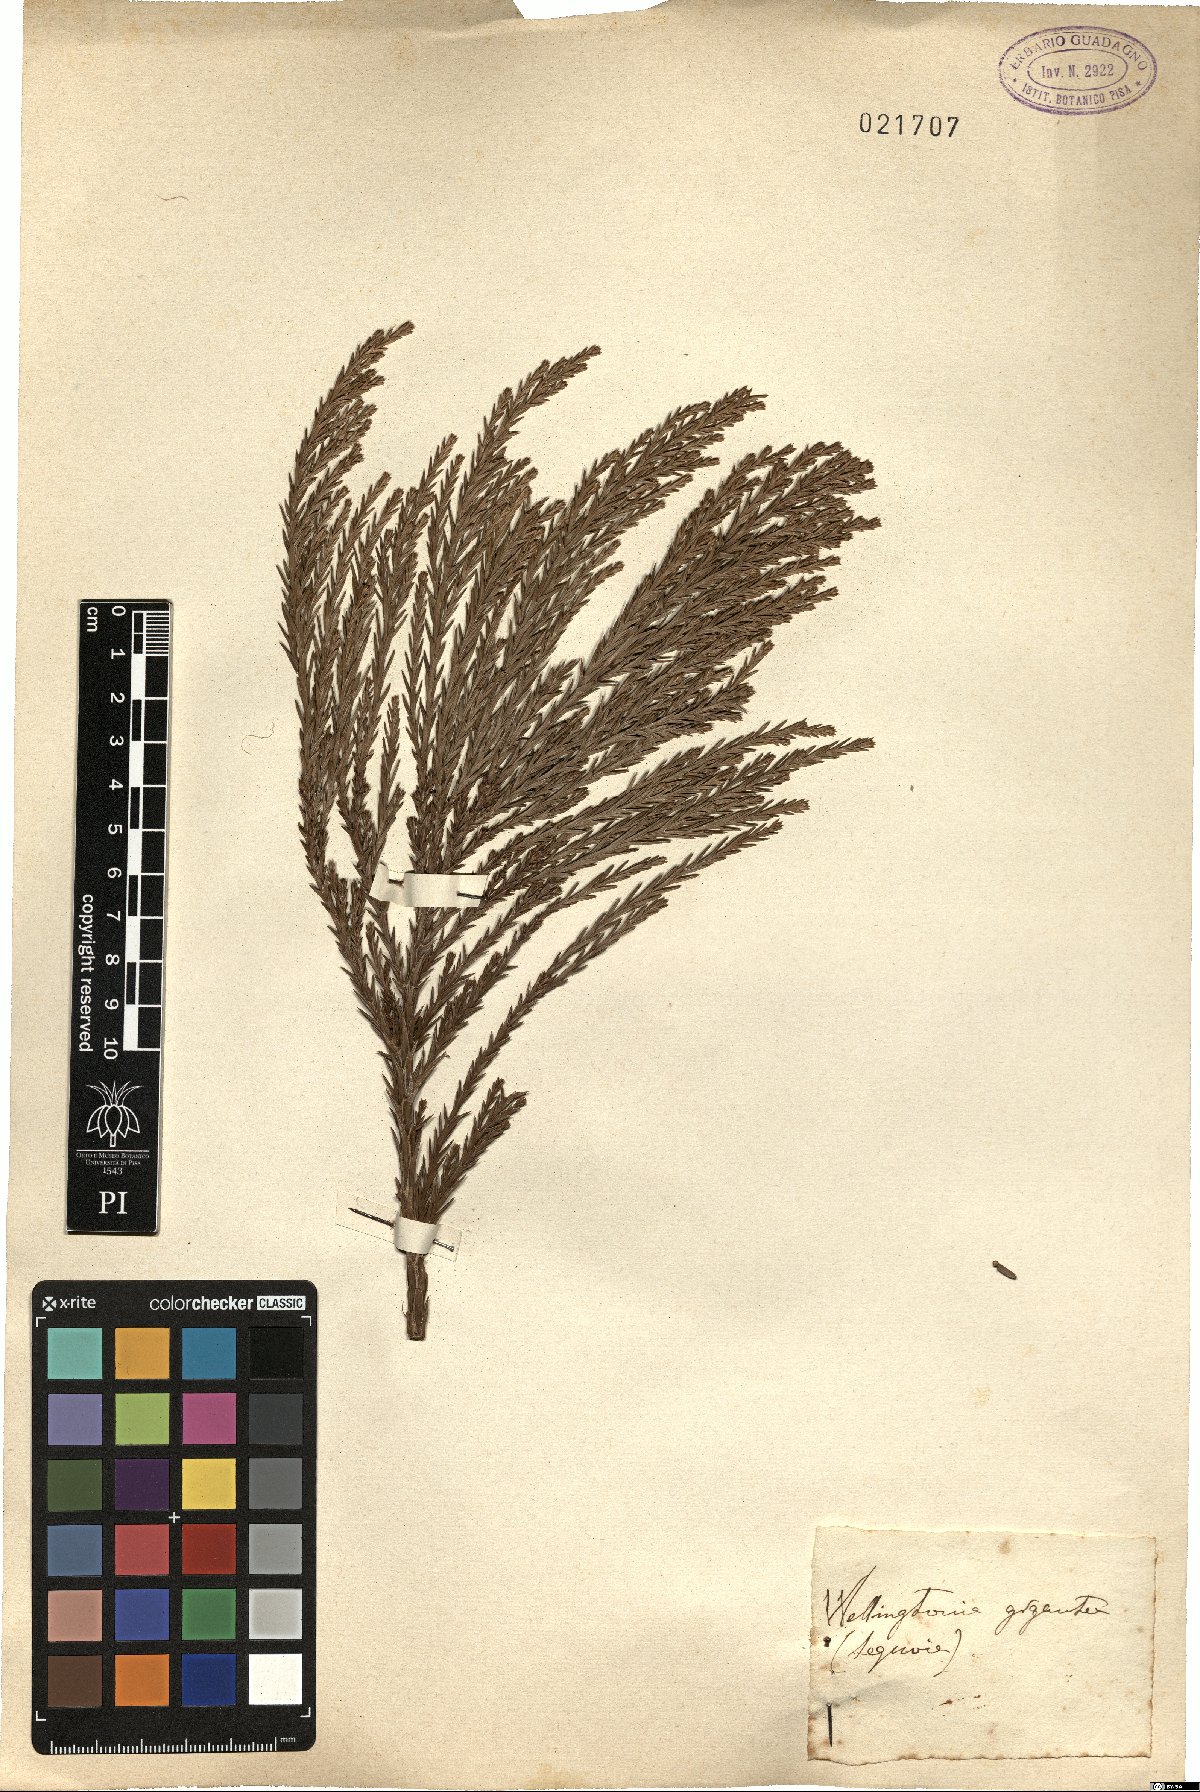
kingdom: Plantae
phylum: Tracheophyta
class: Pinopsida
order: Pinales
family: Cupressaceae
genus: Sequoiadendron
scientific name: Sequoiadendron giganteum
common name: Wellingtonia
